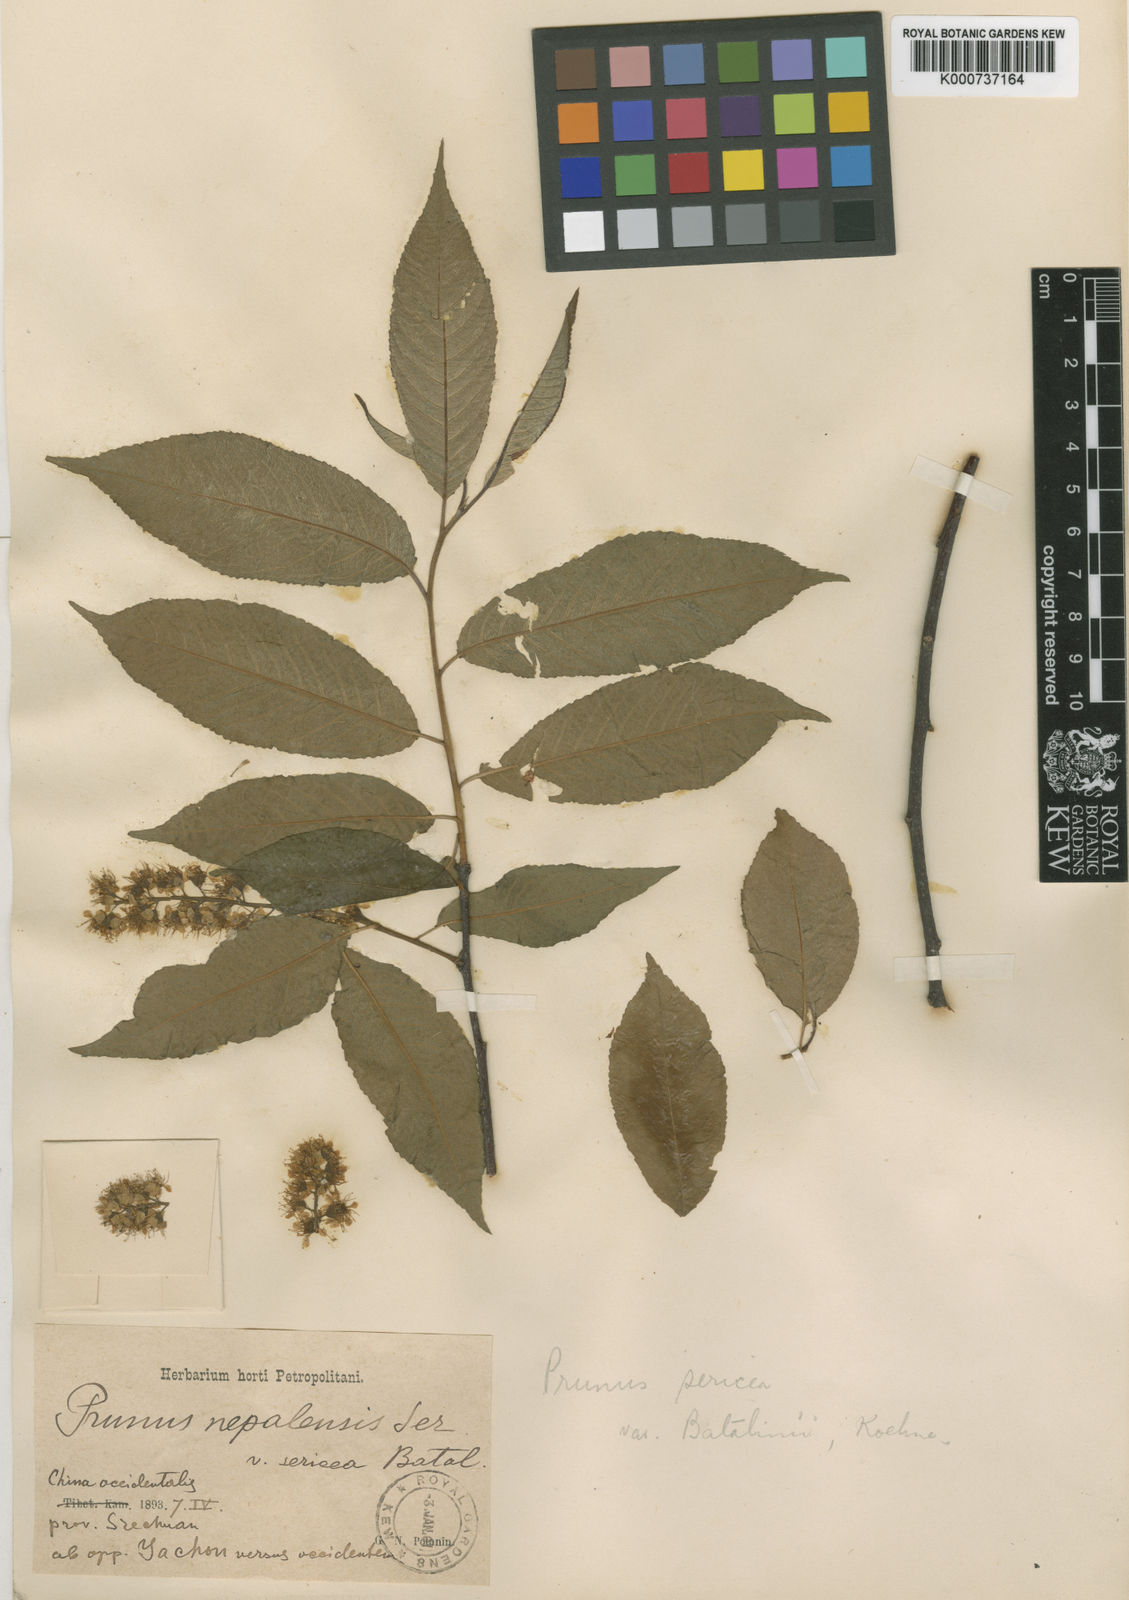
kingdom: Plantae
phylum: Tracheophyta
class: Magnoliopsida
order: Rosales
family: Rosaceae
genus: Prunus
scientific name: Prunus wilsonii
